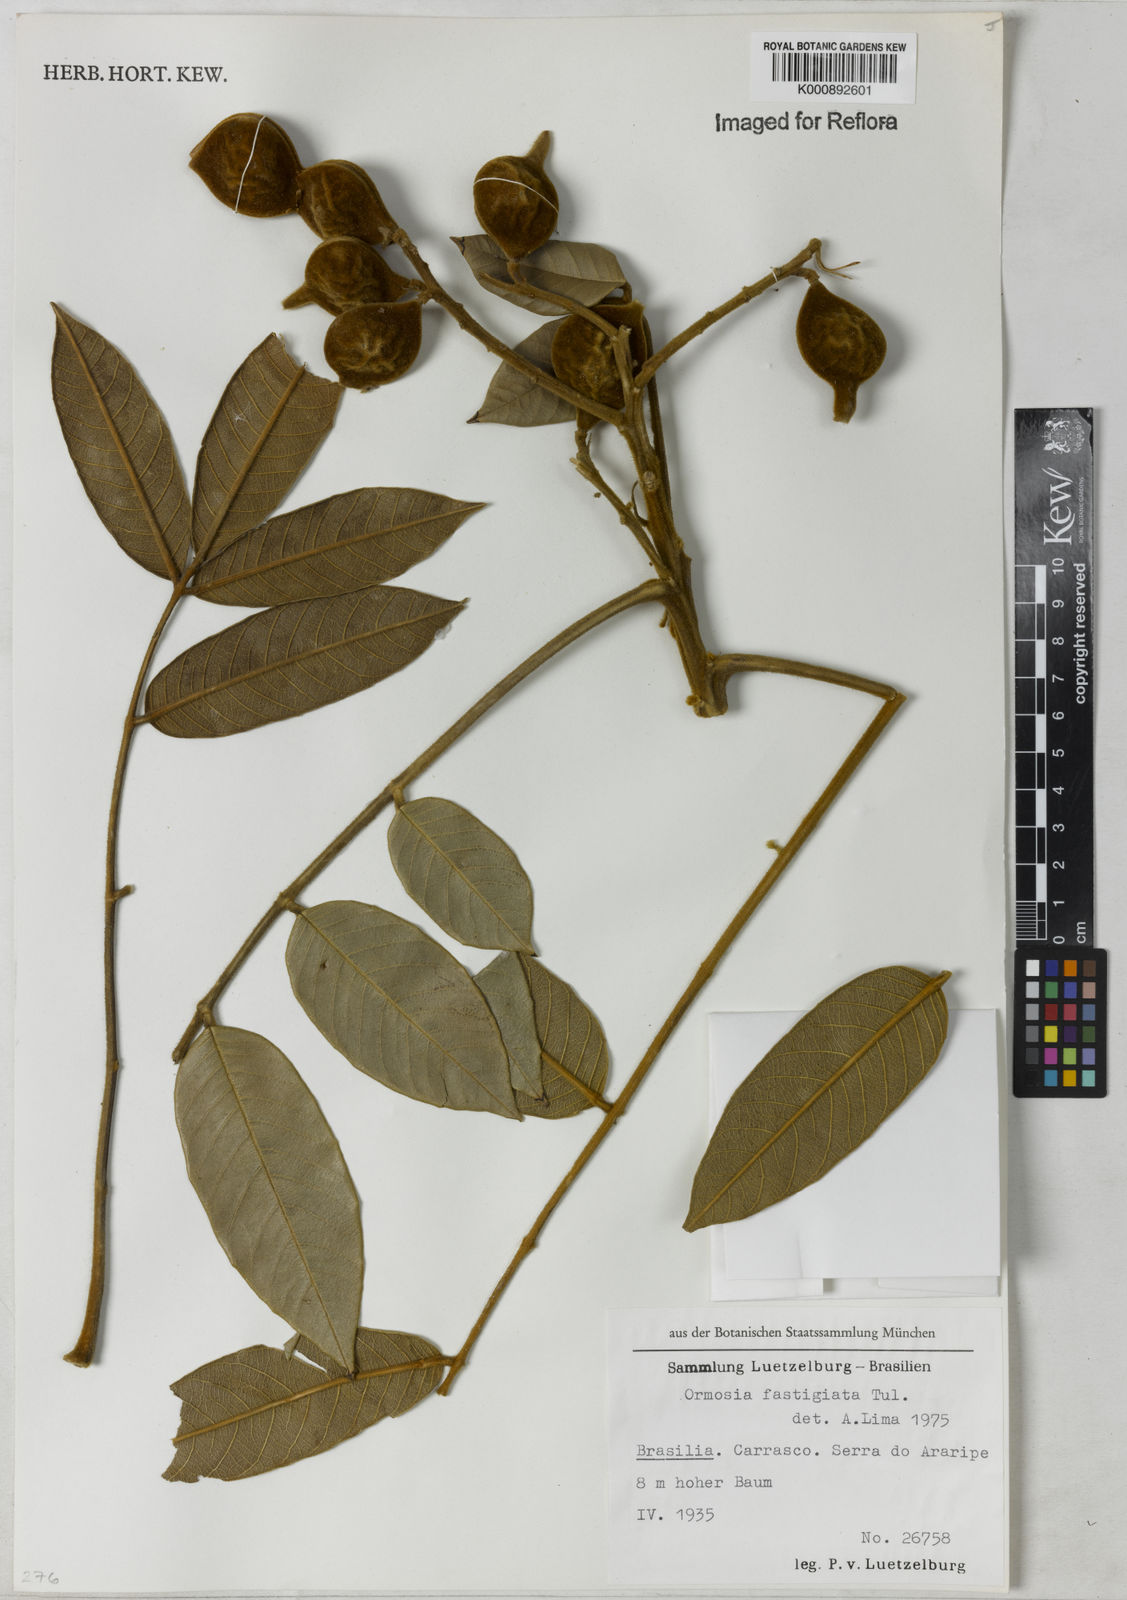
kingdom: Plantae
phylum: Tracheophyta
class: Magnoliopsida
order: Fabales
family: Fabaceae
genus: Ormosia
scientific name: Ormosia fastigiata
